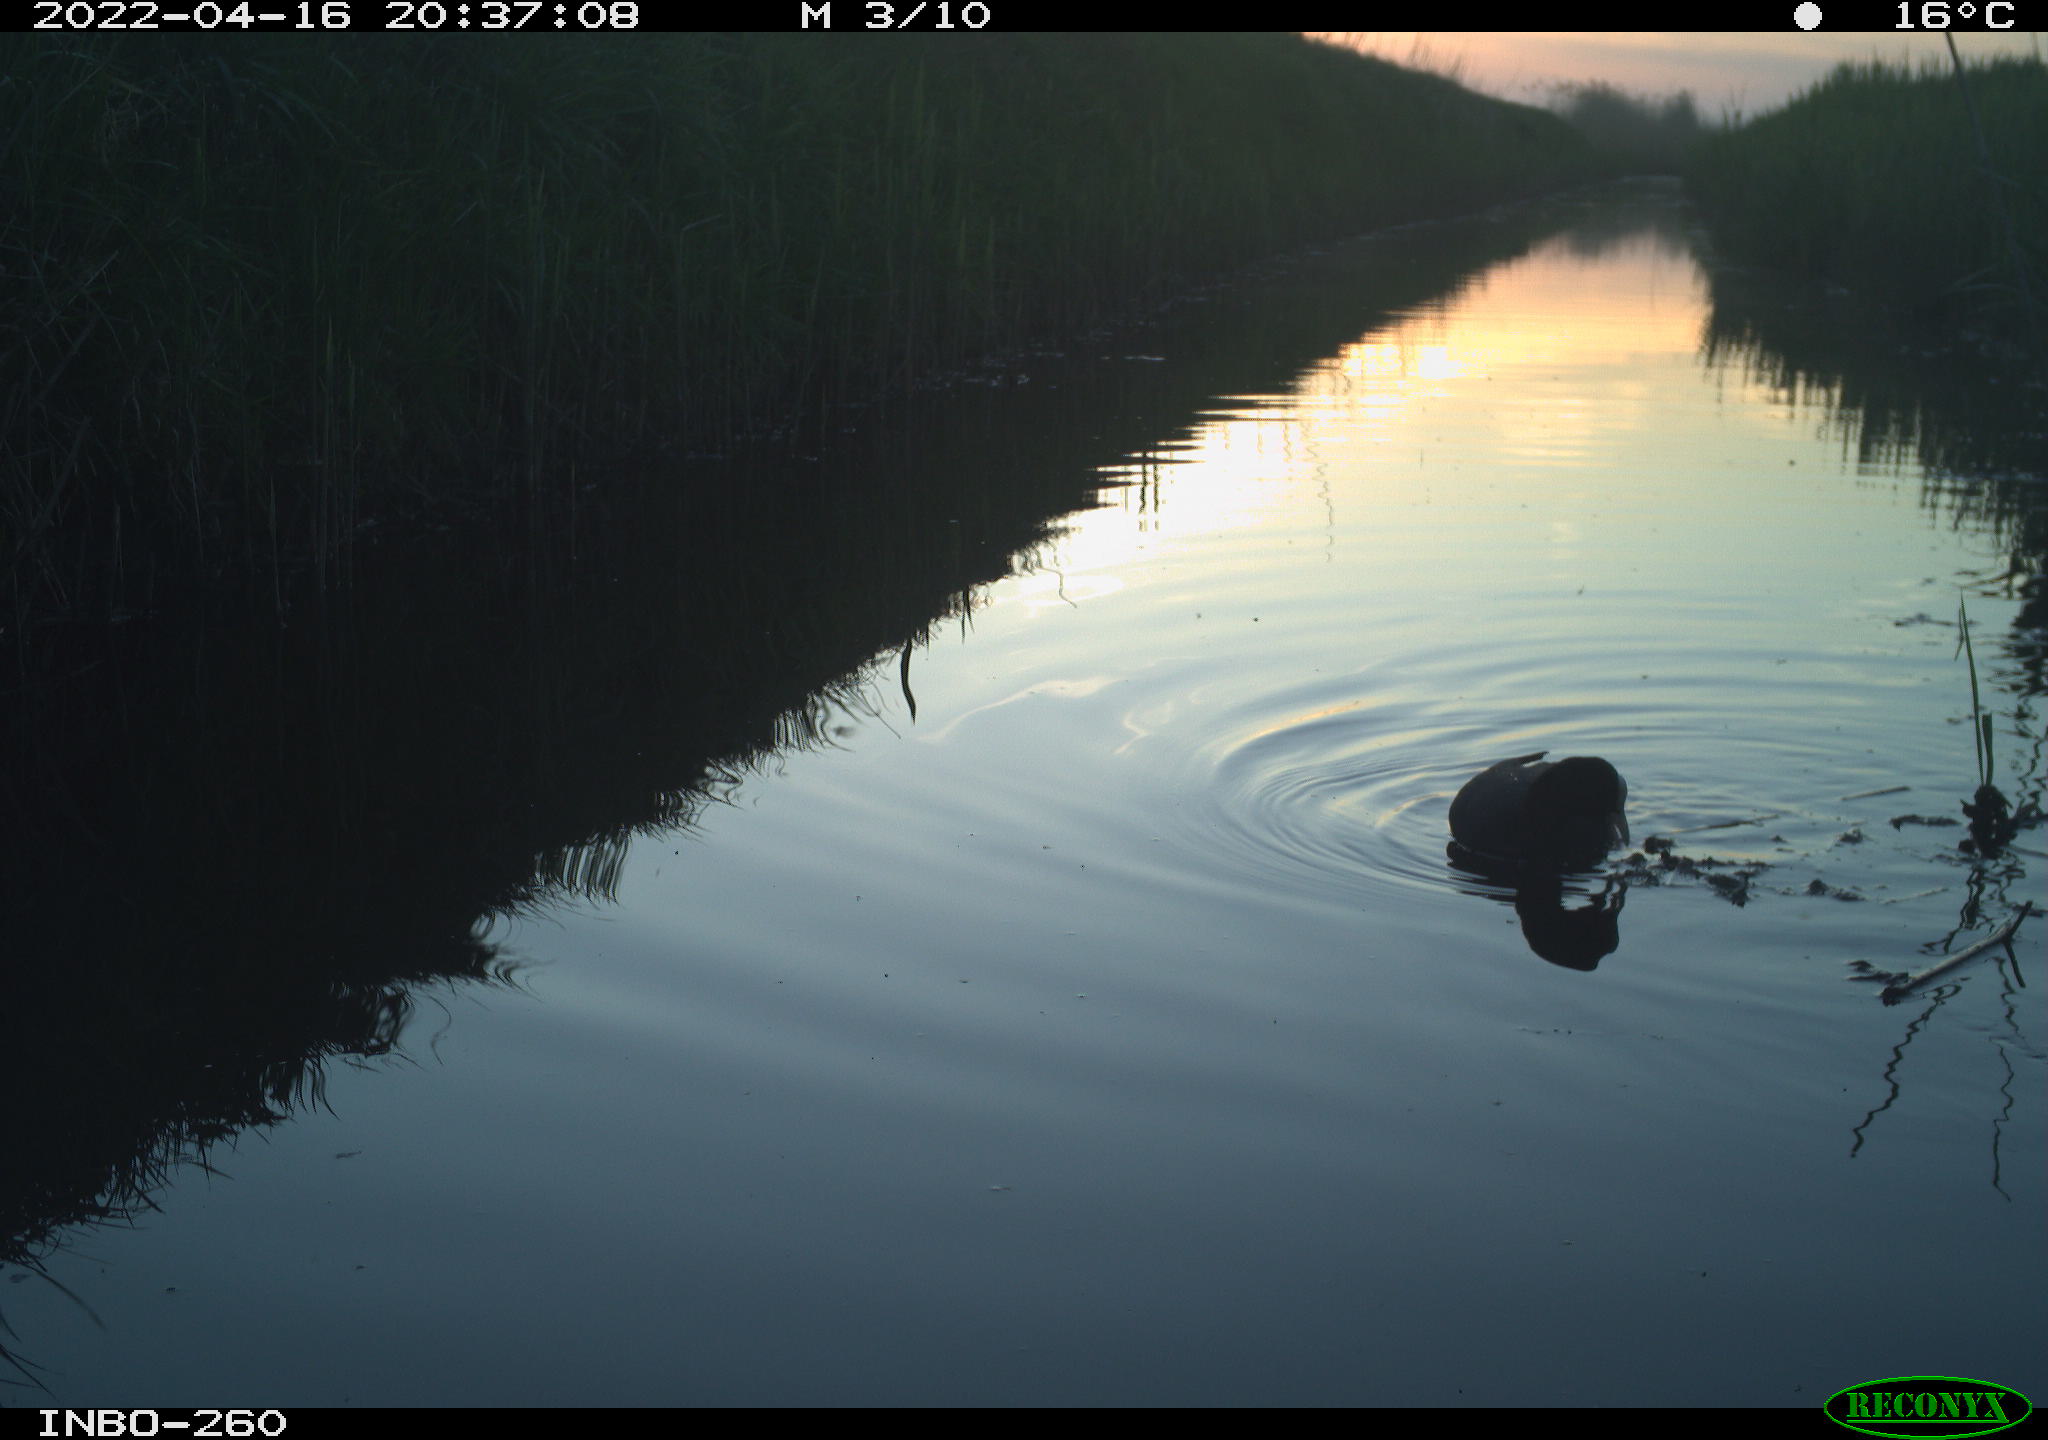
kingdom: Animalia
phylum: Chordata
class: Aves
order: Gruiformes
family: Rallidae
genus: Fulica
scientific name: Fulica atra
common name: Eurasian coot
